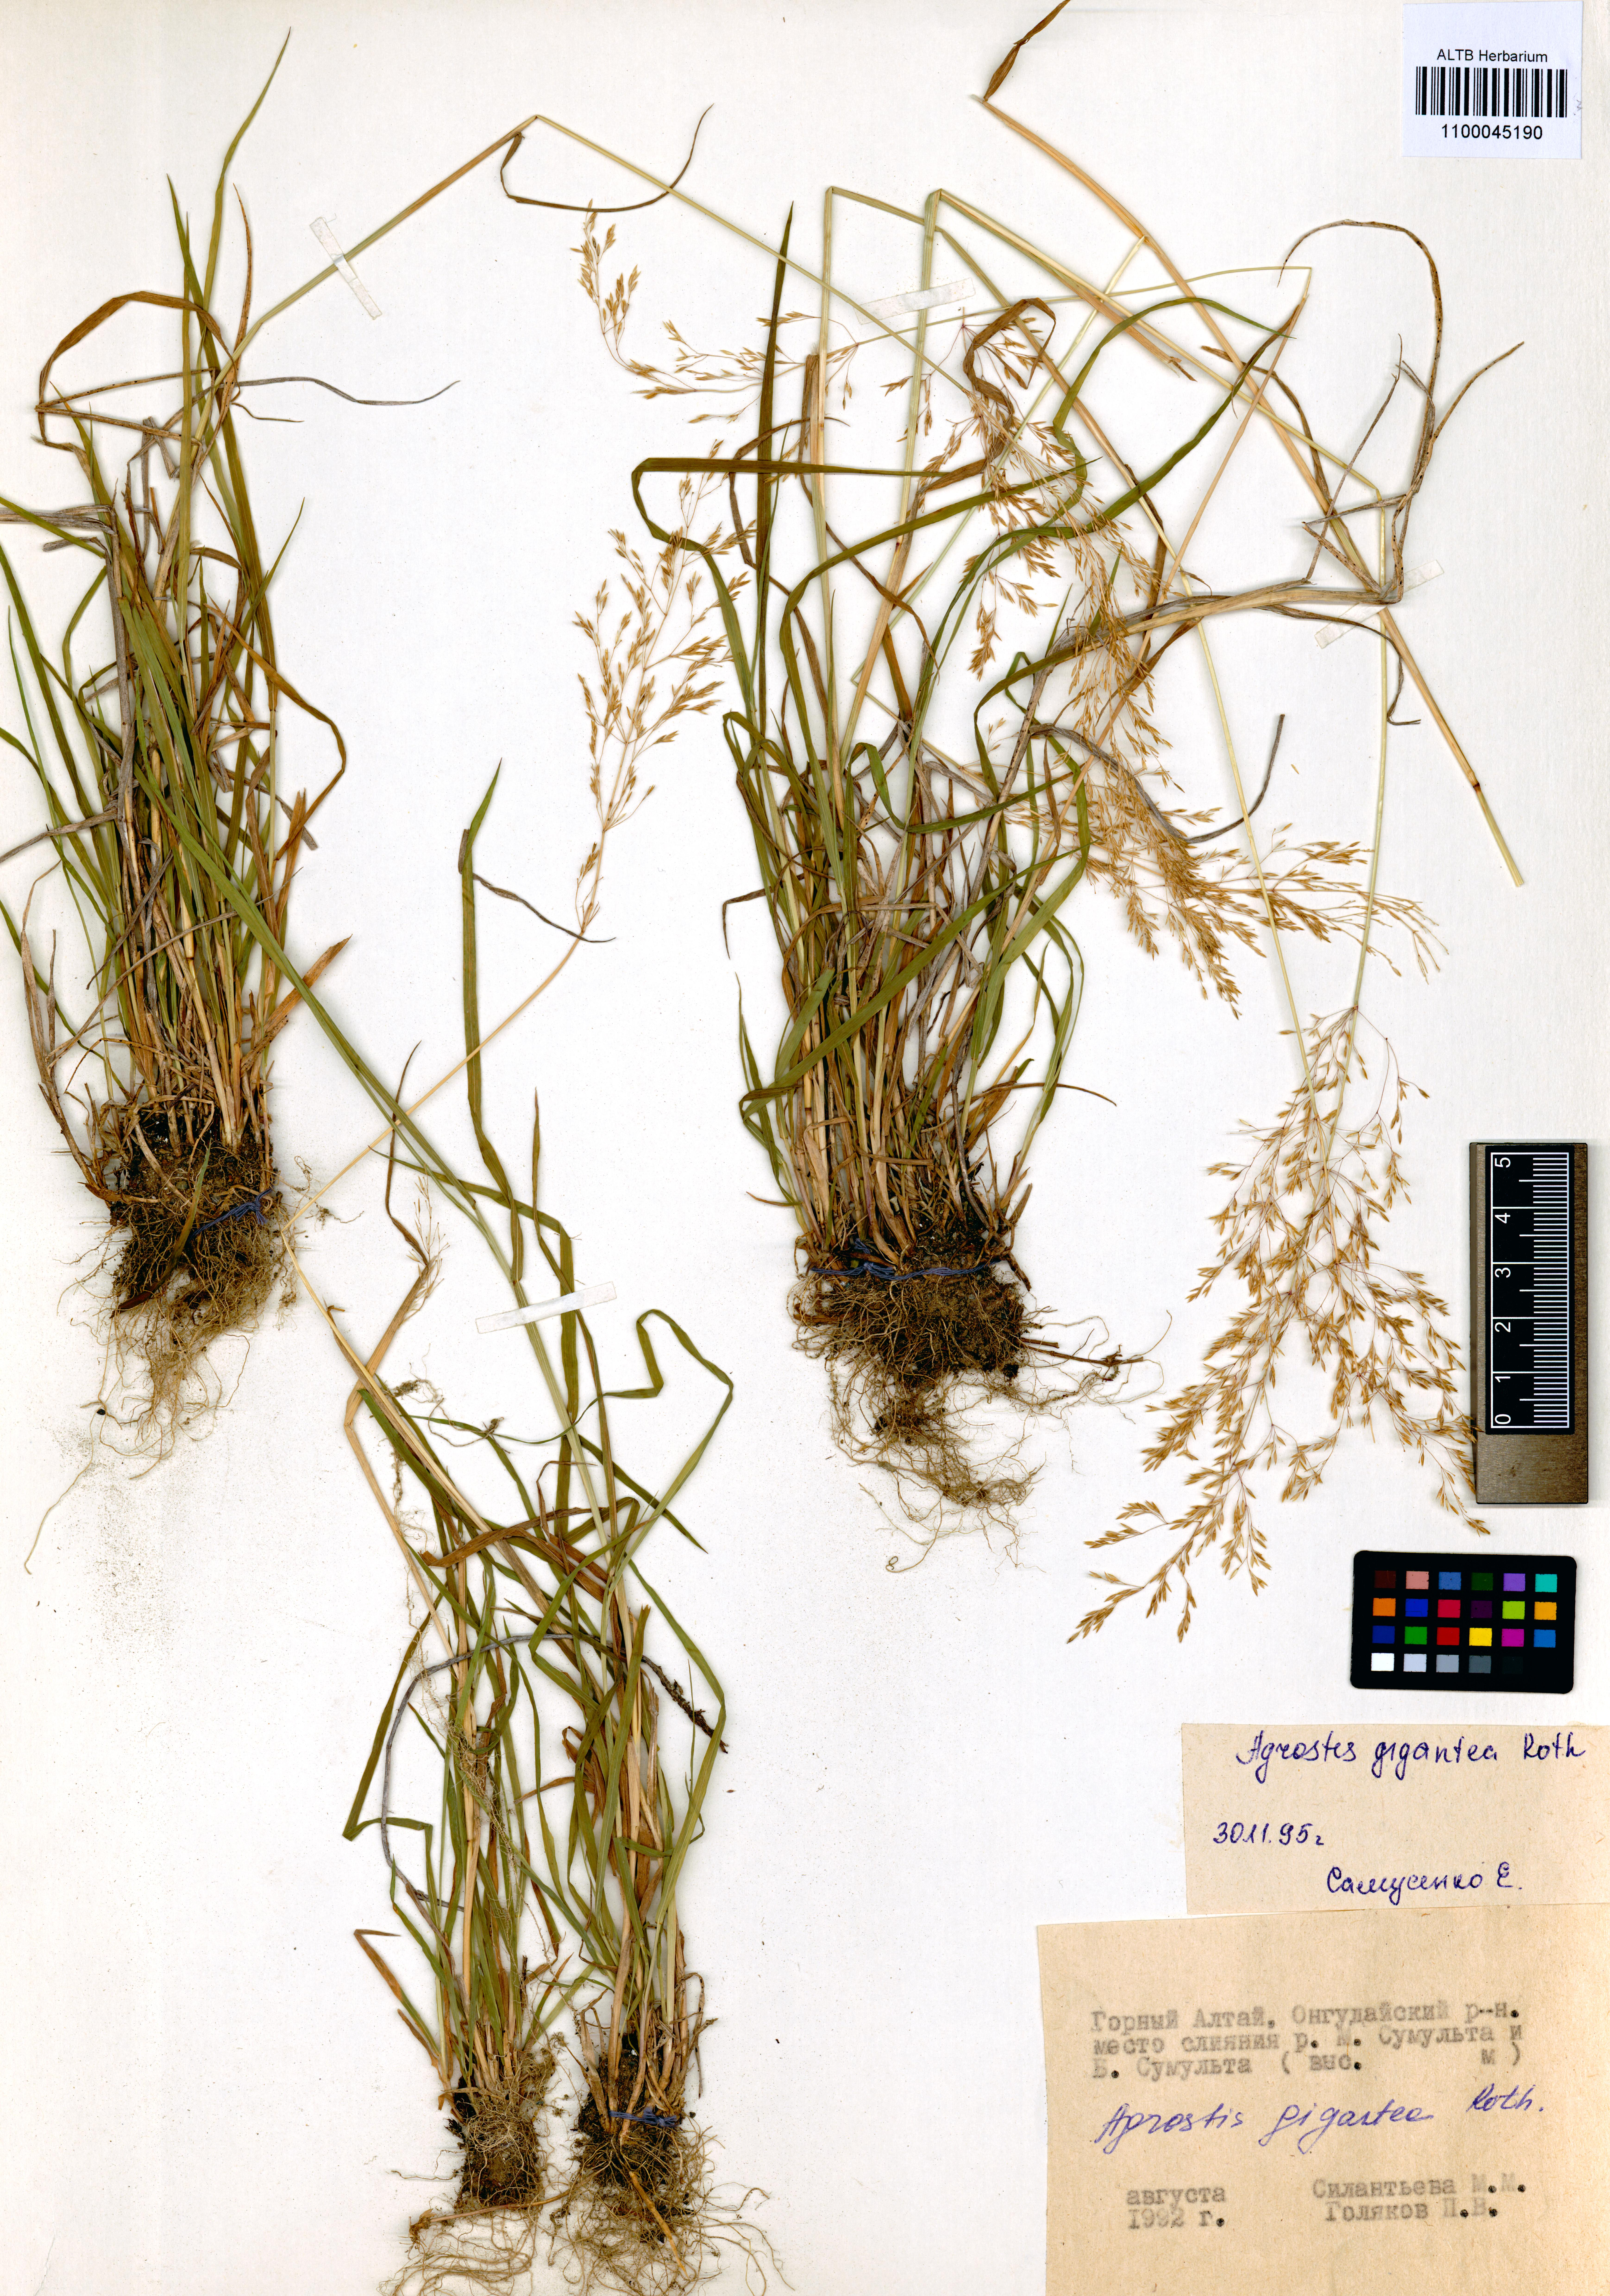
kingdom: Plantae
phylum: Tracheophyta
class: Liliopsida
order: Poales
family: Poaceae
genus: Agrostis
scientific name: Agrostis gigantea
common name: Black bent
